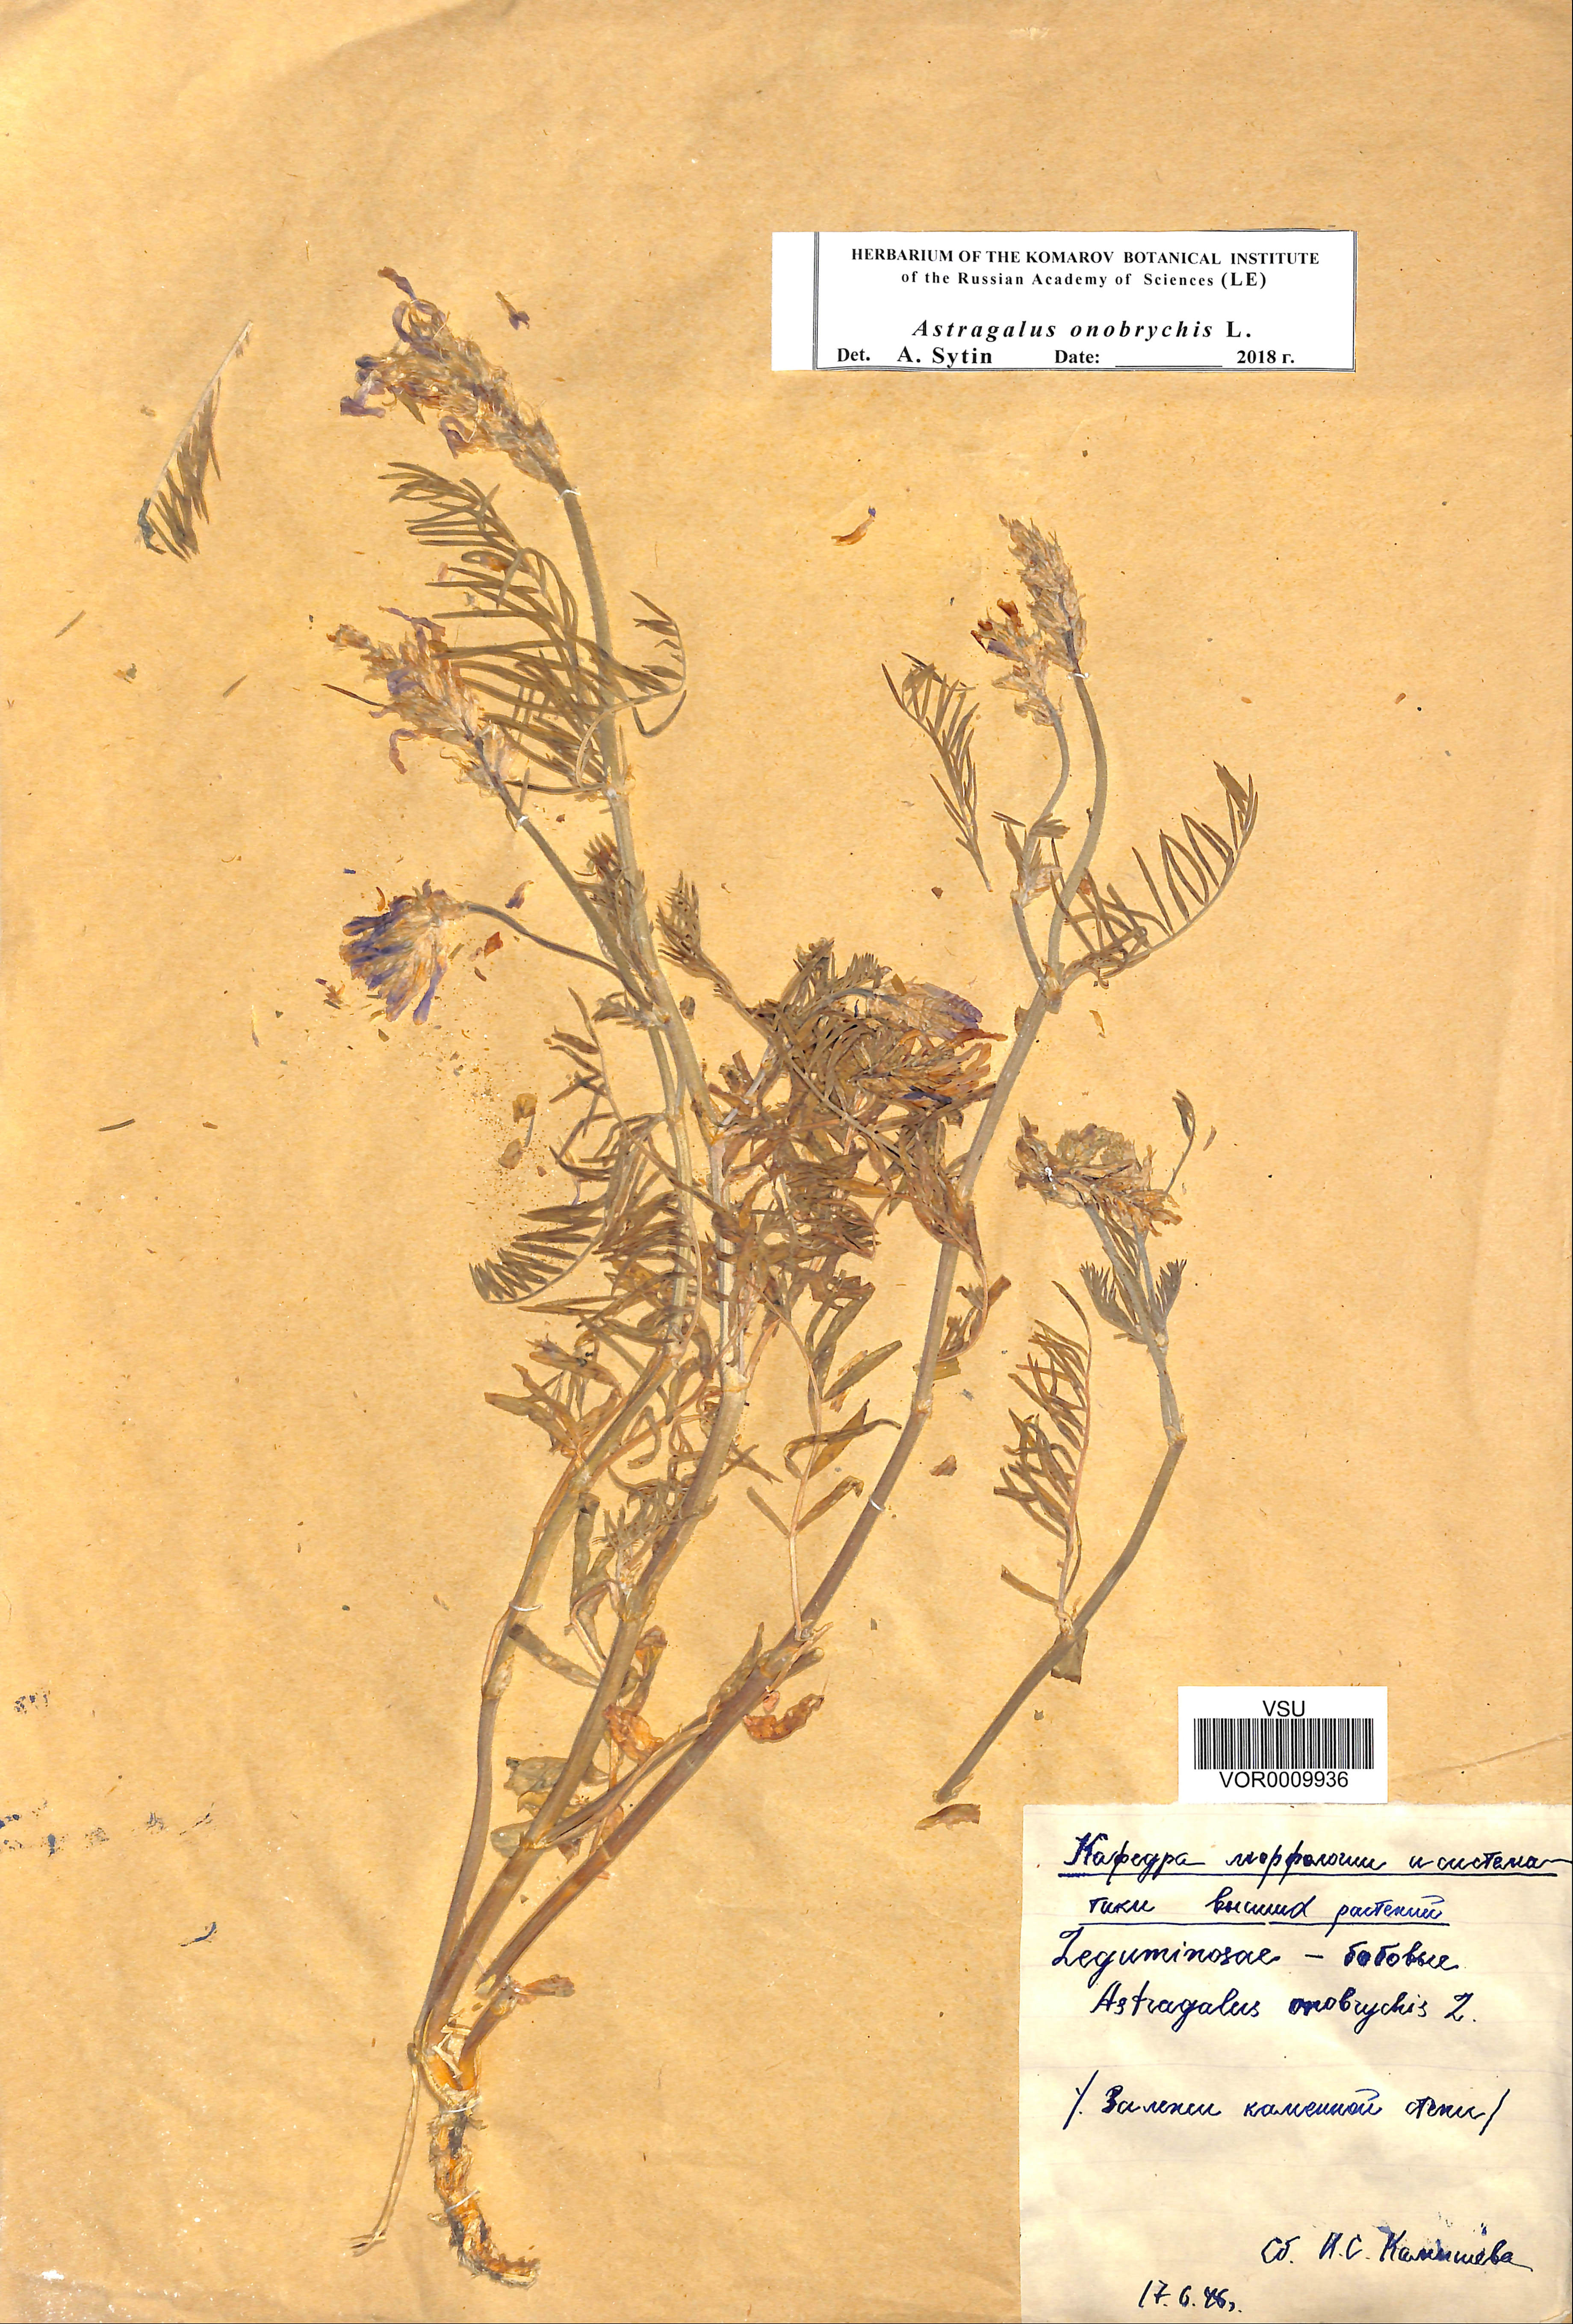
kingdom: Plantae
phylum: Tracheophyta
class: Magnoliopsida
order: Fabales
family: Fabaceae
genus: Astragalus
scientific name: Astragalus onobrychis
